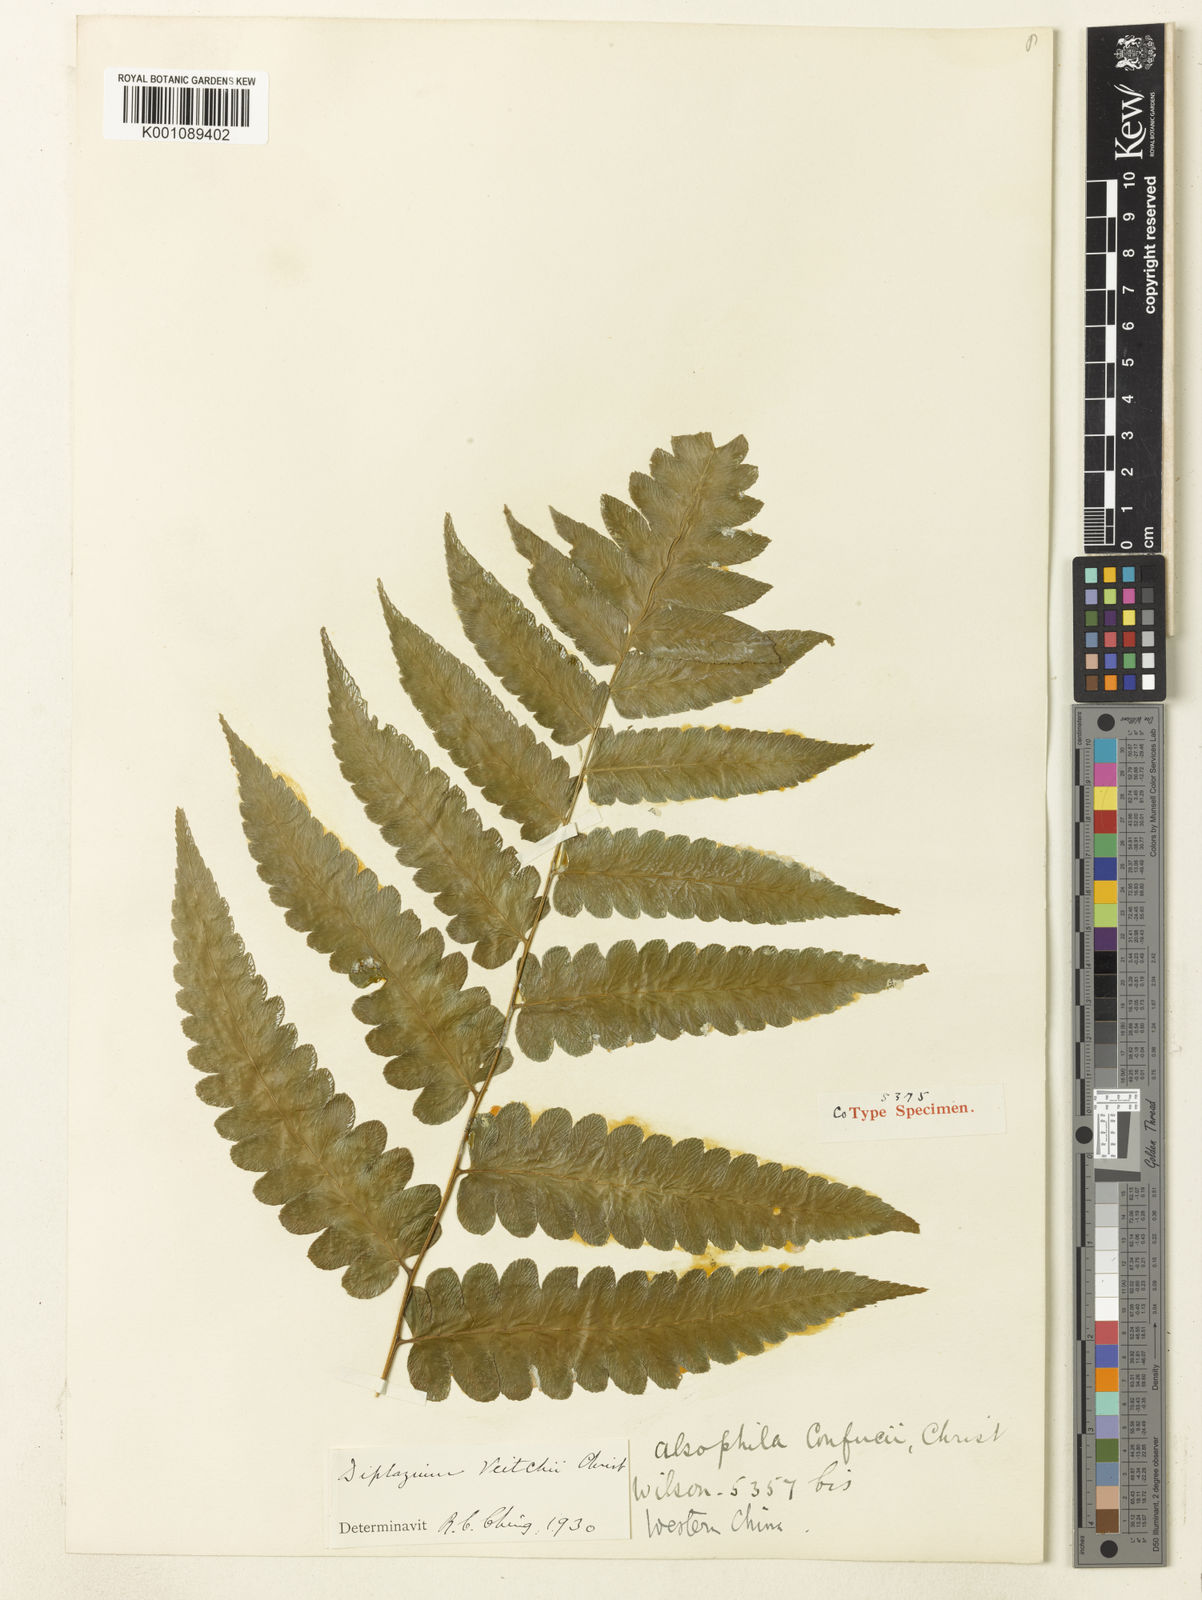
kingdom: Plantae
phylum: Tracheophyta
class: Polypodiopsida
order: Polypodiales
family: Athyriaceae
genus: Diplazium
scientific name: Diplazium dilatatum
